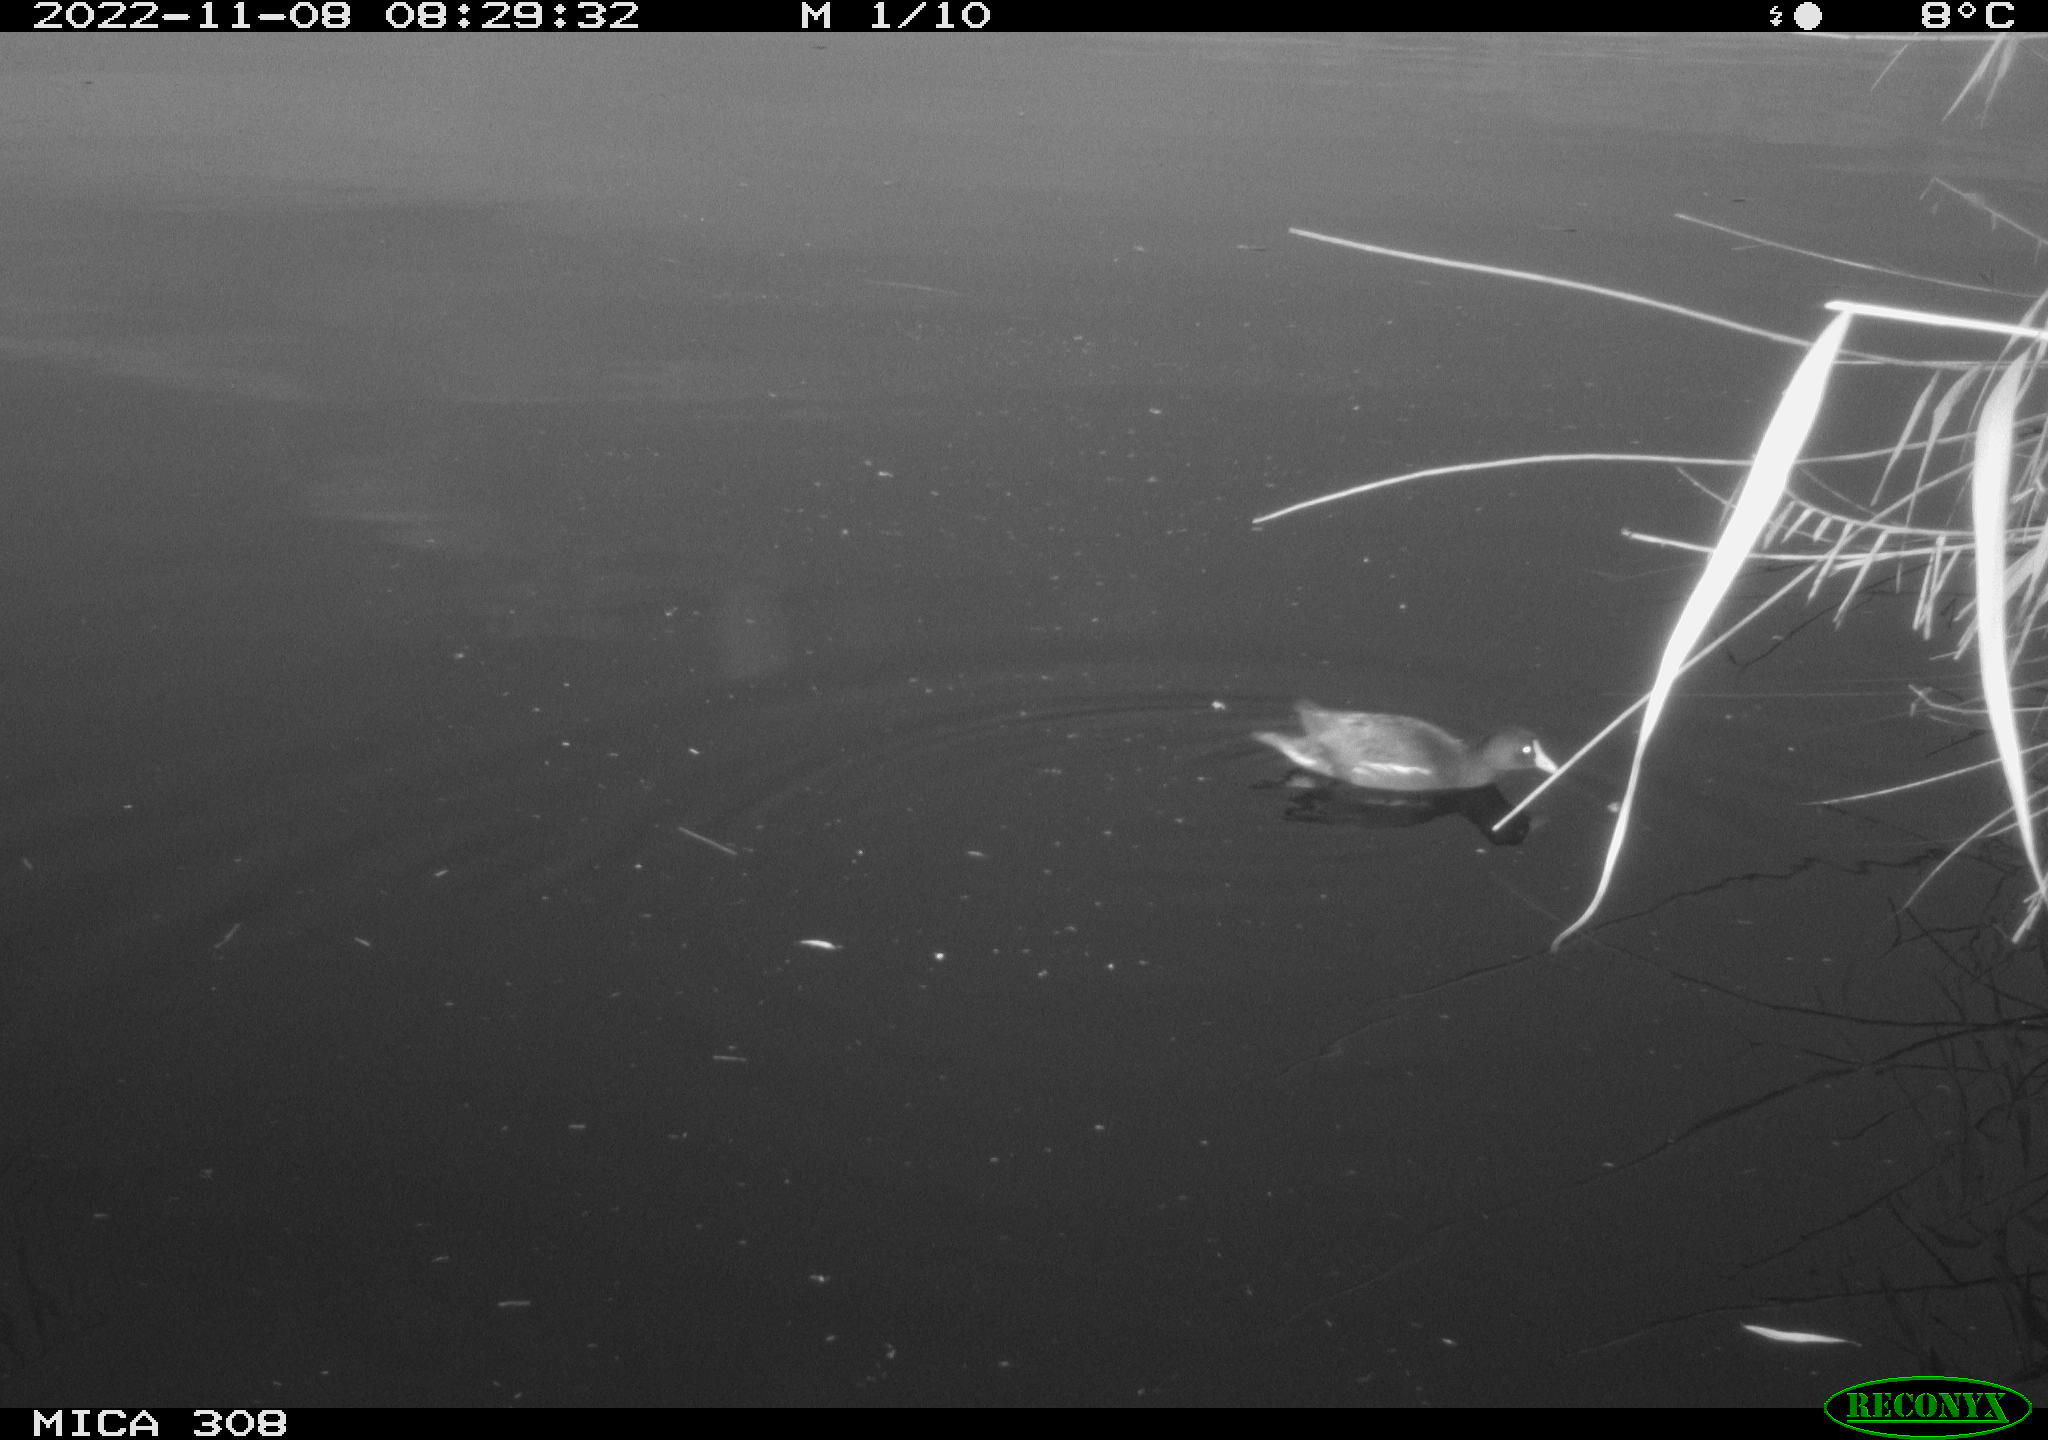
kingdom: Animalia
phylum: Chordata
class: Aves
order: Gruiformes
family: Rallidae
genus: Gallinula
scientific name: Gallinula chloropus
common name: Common moorhen
